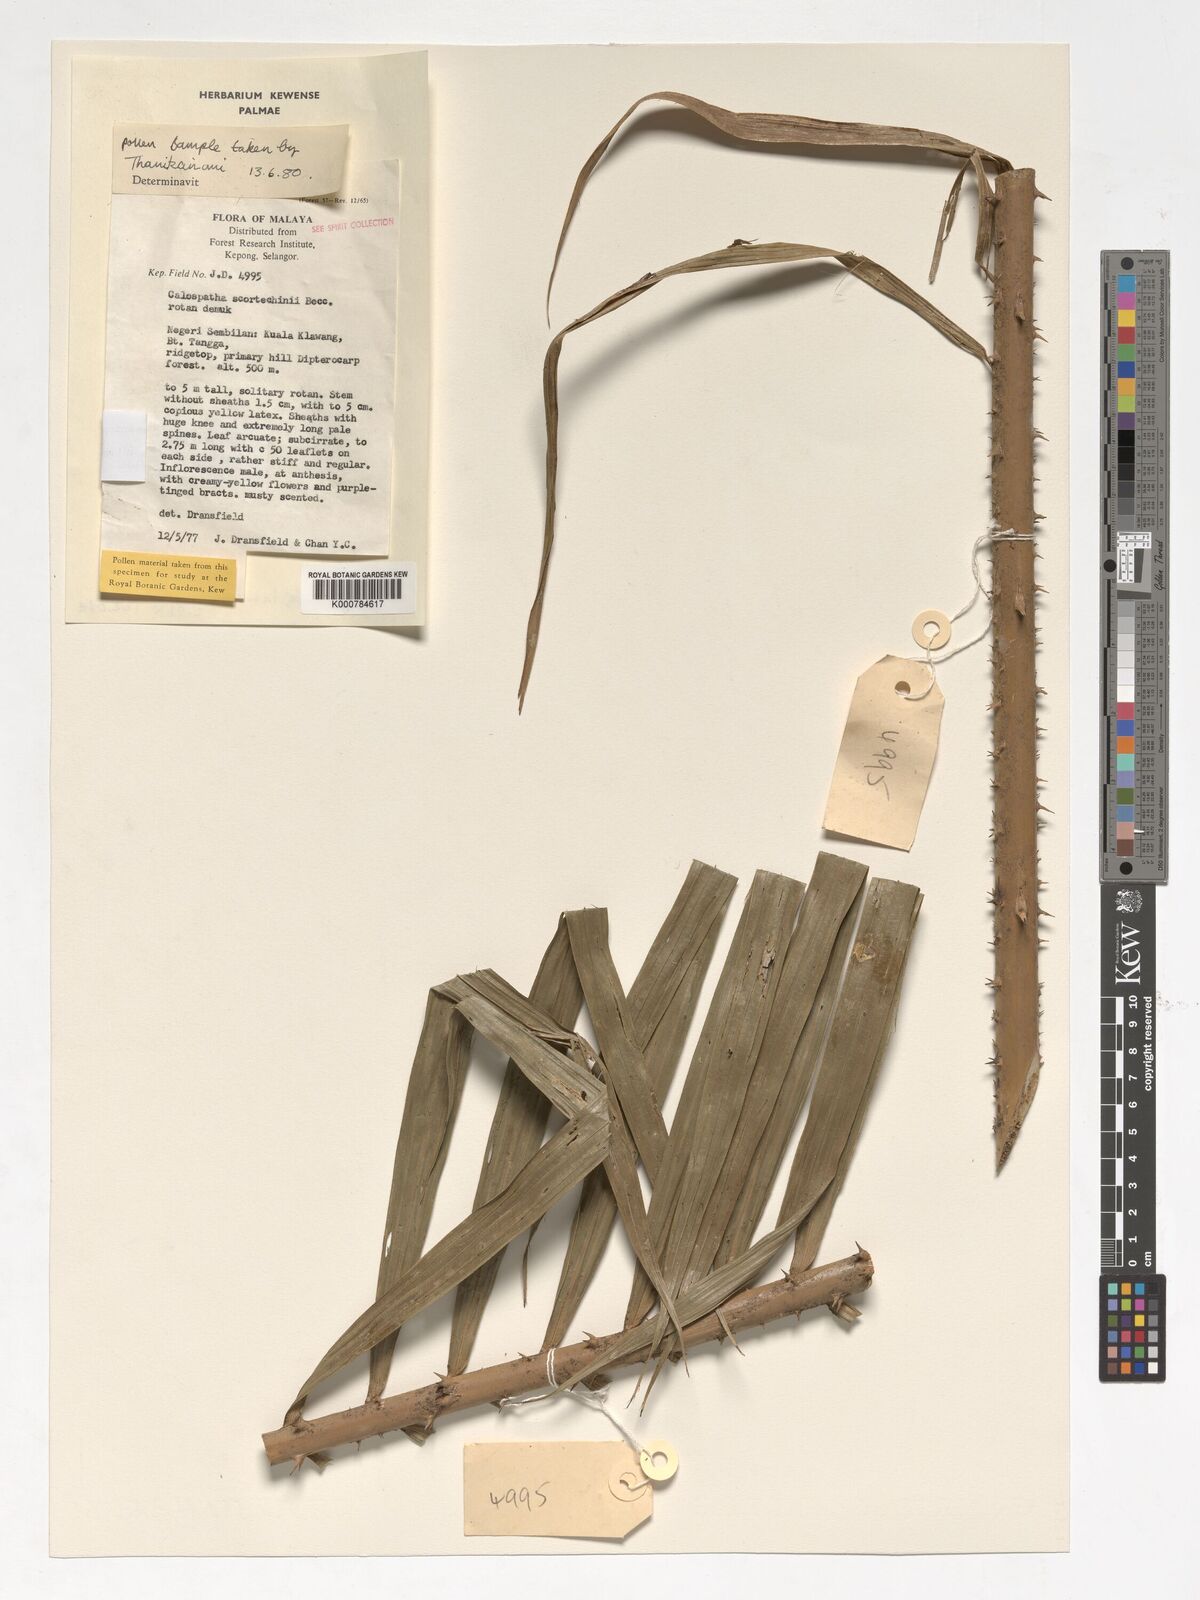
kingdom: Plantae
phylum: Tracheophyta
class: Liliopsida
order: Arecales
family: Arecaceae
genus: Calamus
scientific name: Calamus calospathus
